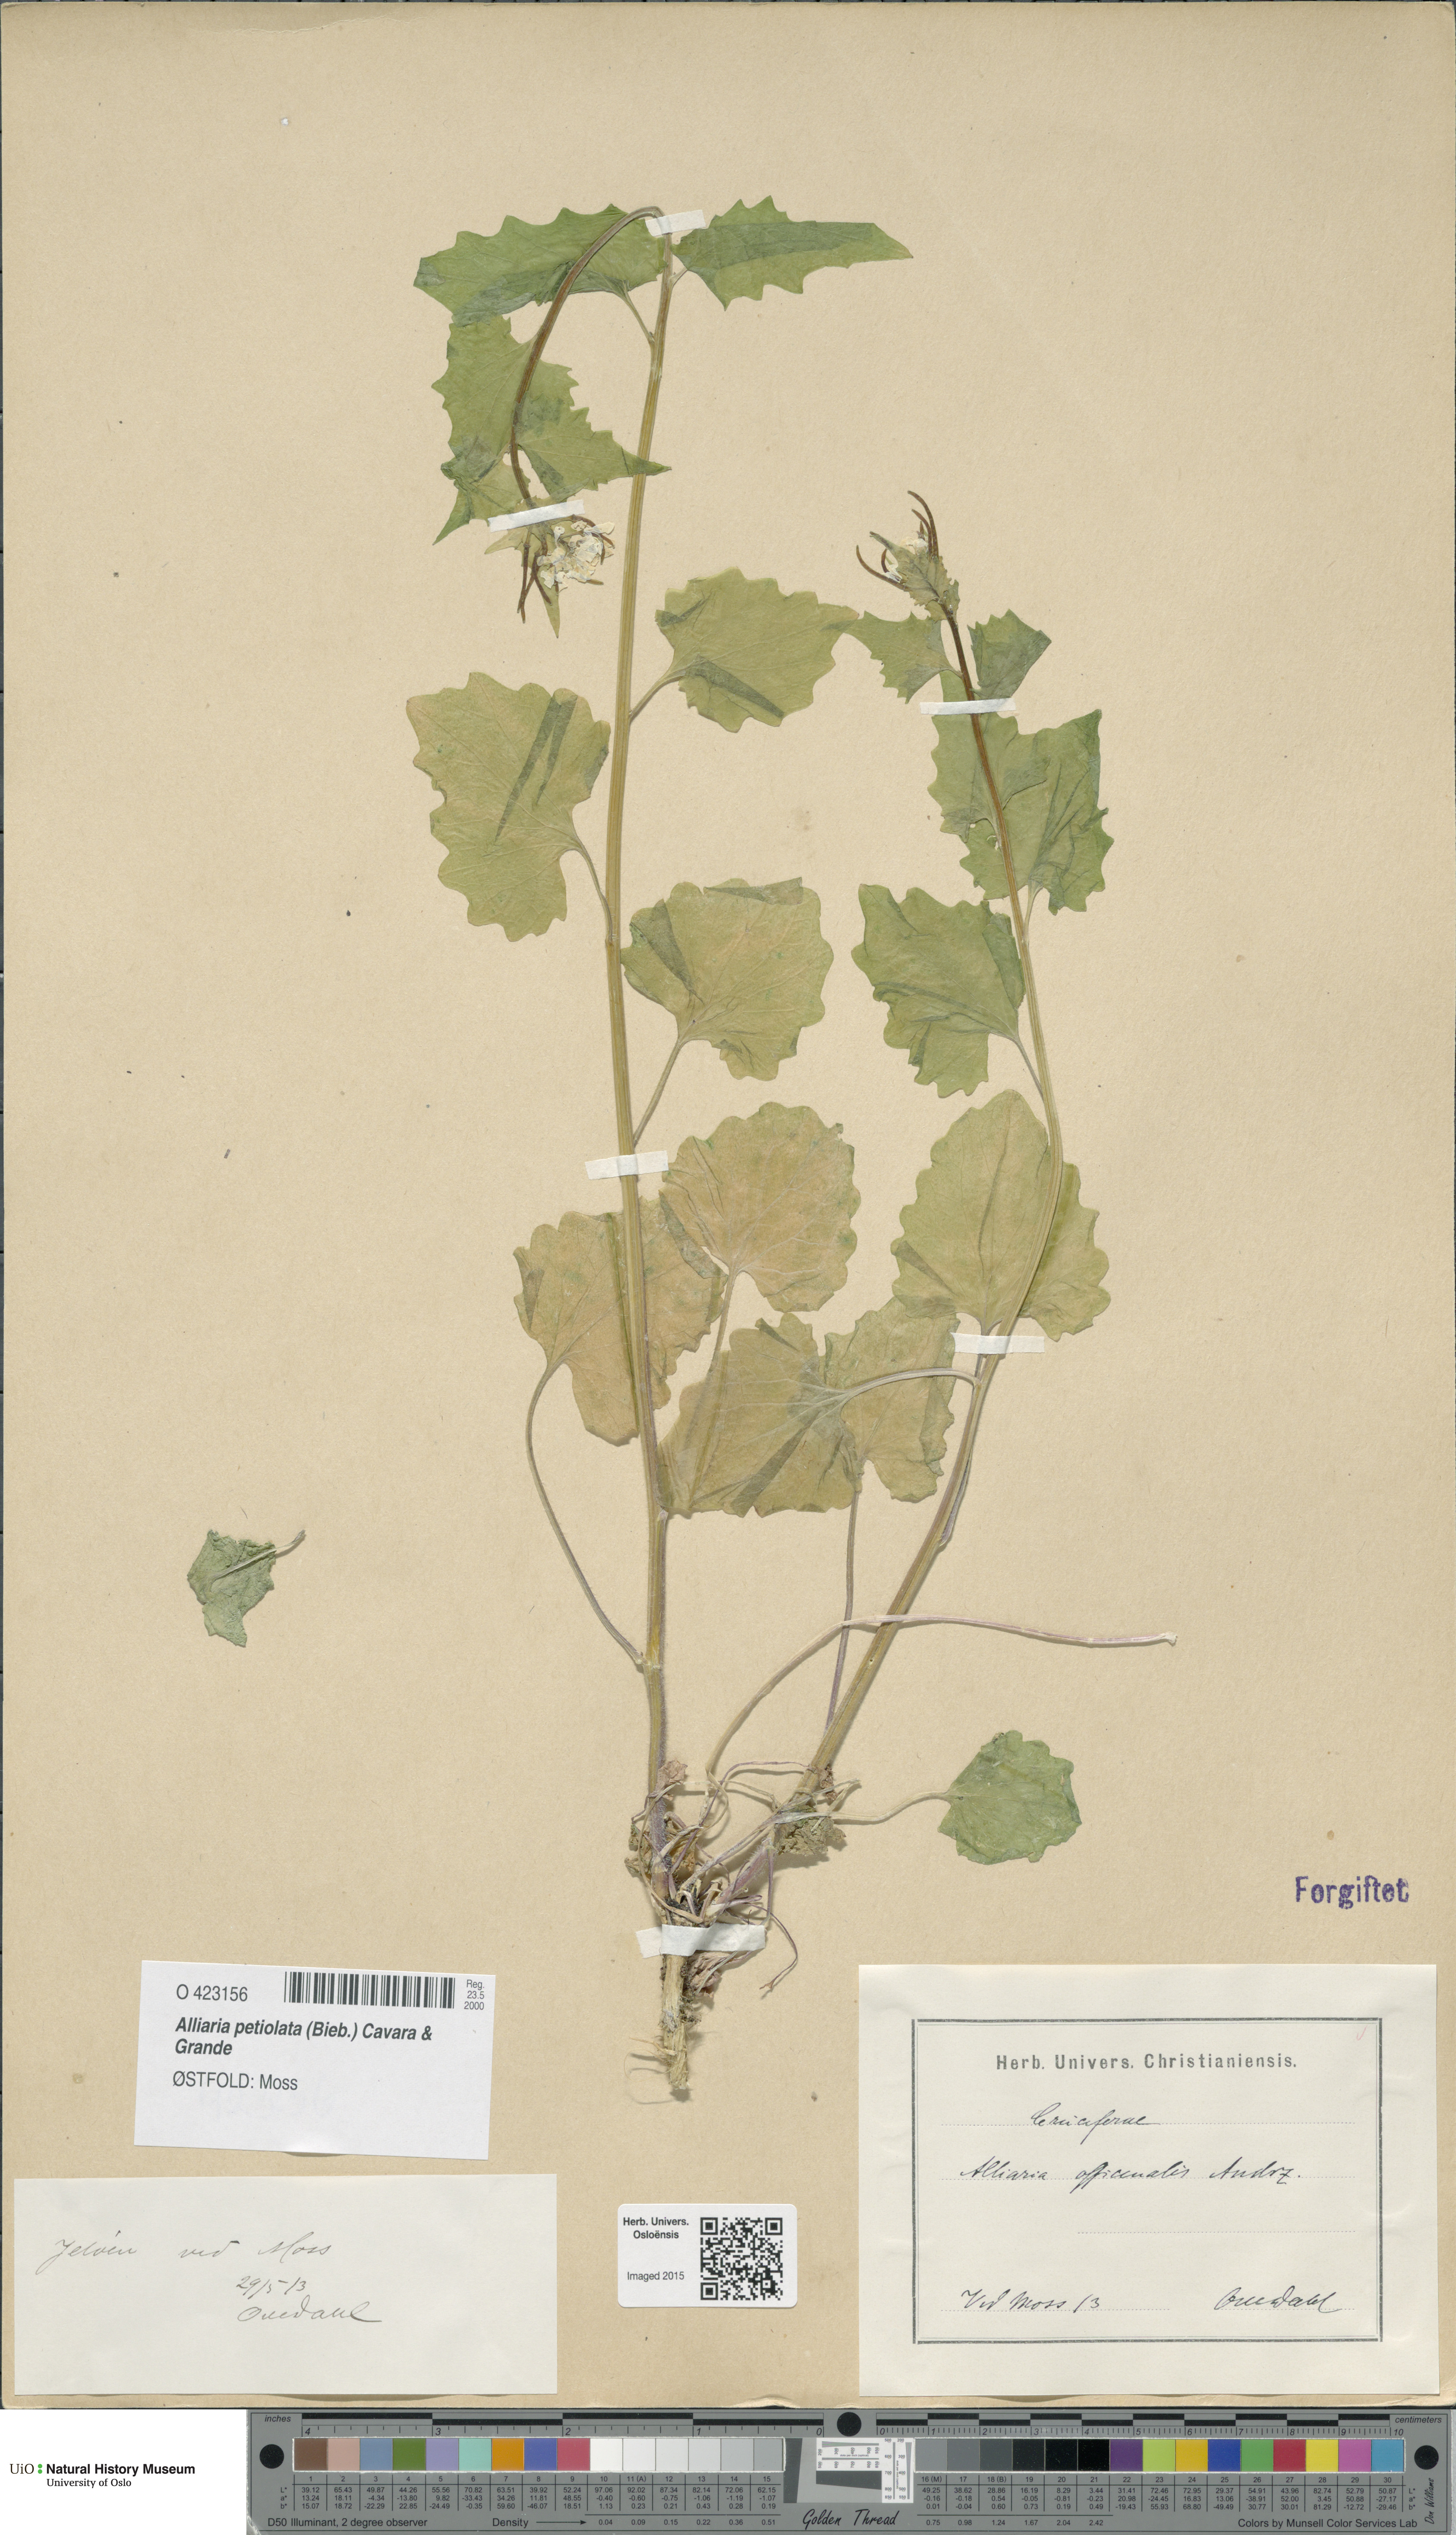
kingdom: Plantae
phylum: Tracheophyta
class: Magnoliopsida
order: Brassicales
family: Brassicaceae
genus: Alliaria
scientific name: Alliaria petiolata
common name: Garlic mustard
